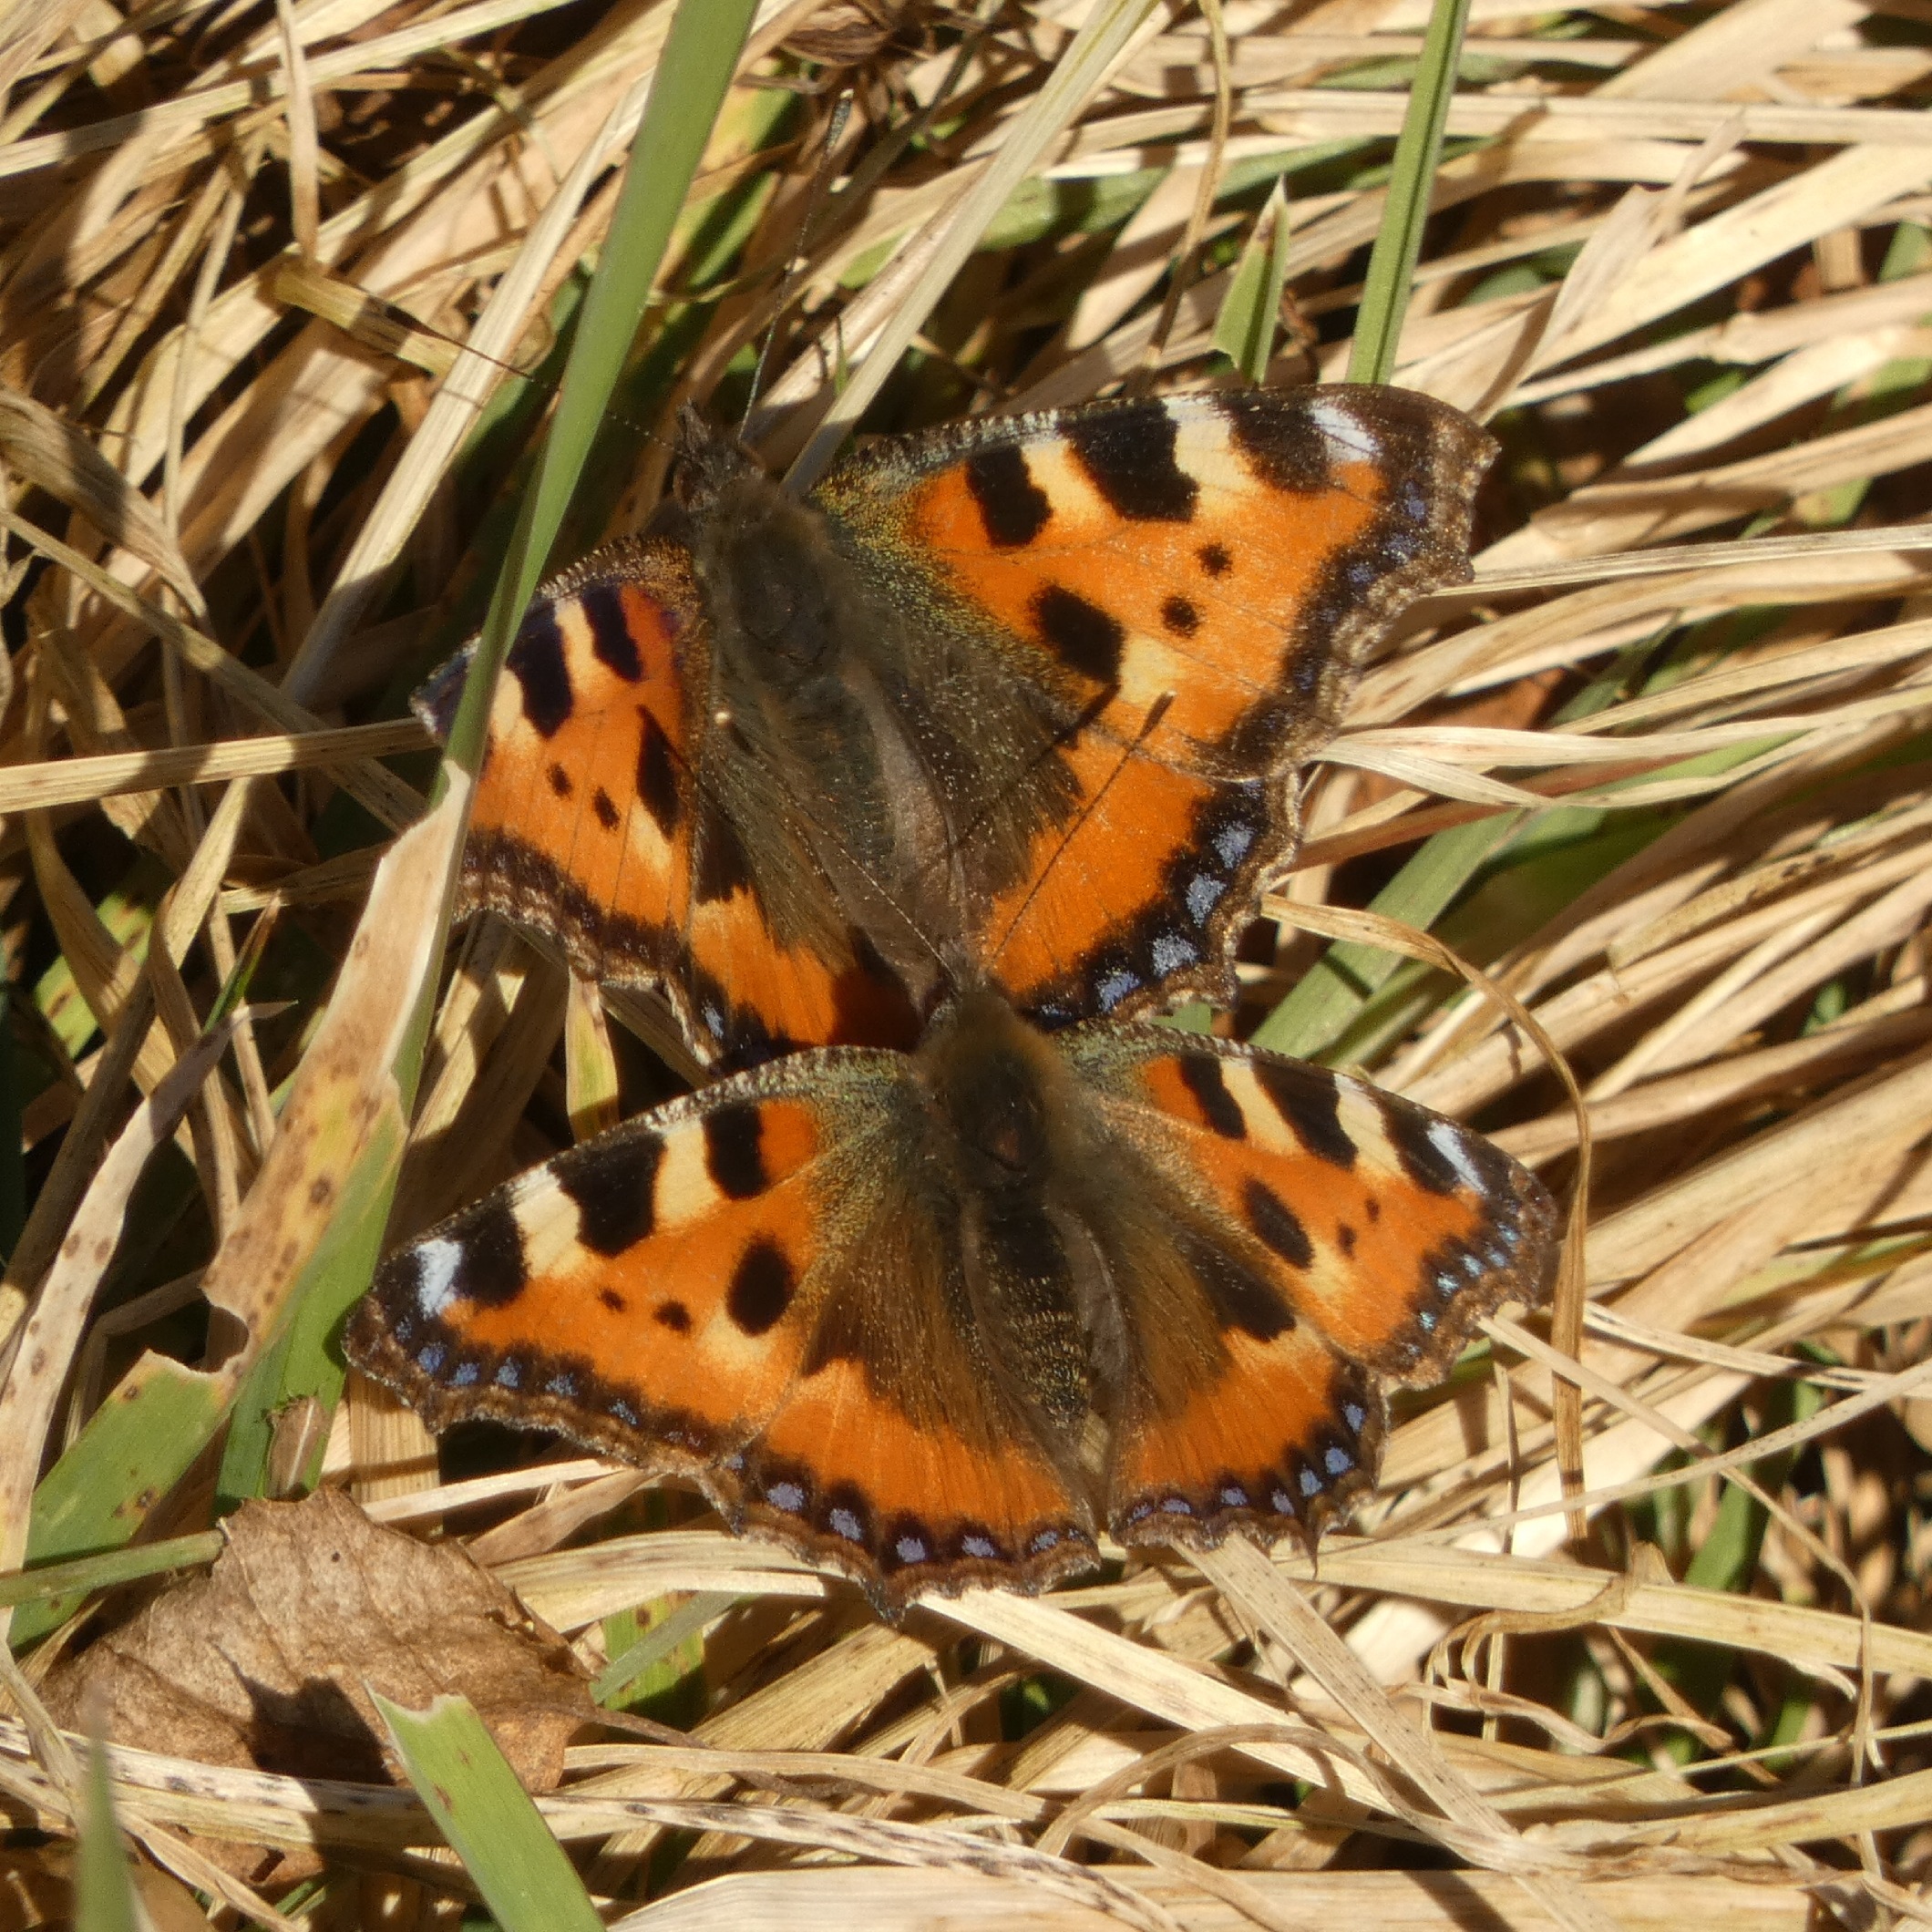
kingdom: Animalia
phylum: Arthropoda
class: Insecta
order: Lepidoptera
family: Nymphalidae
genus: Aglais
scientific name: Aglais urticae
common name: Nældens takvinge
